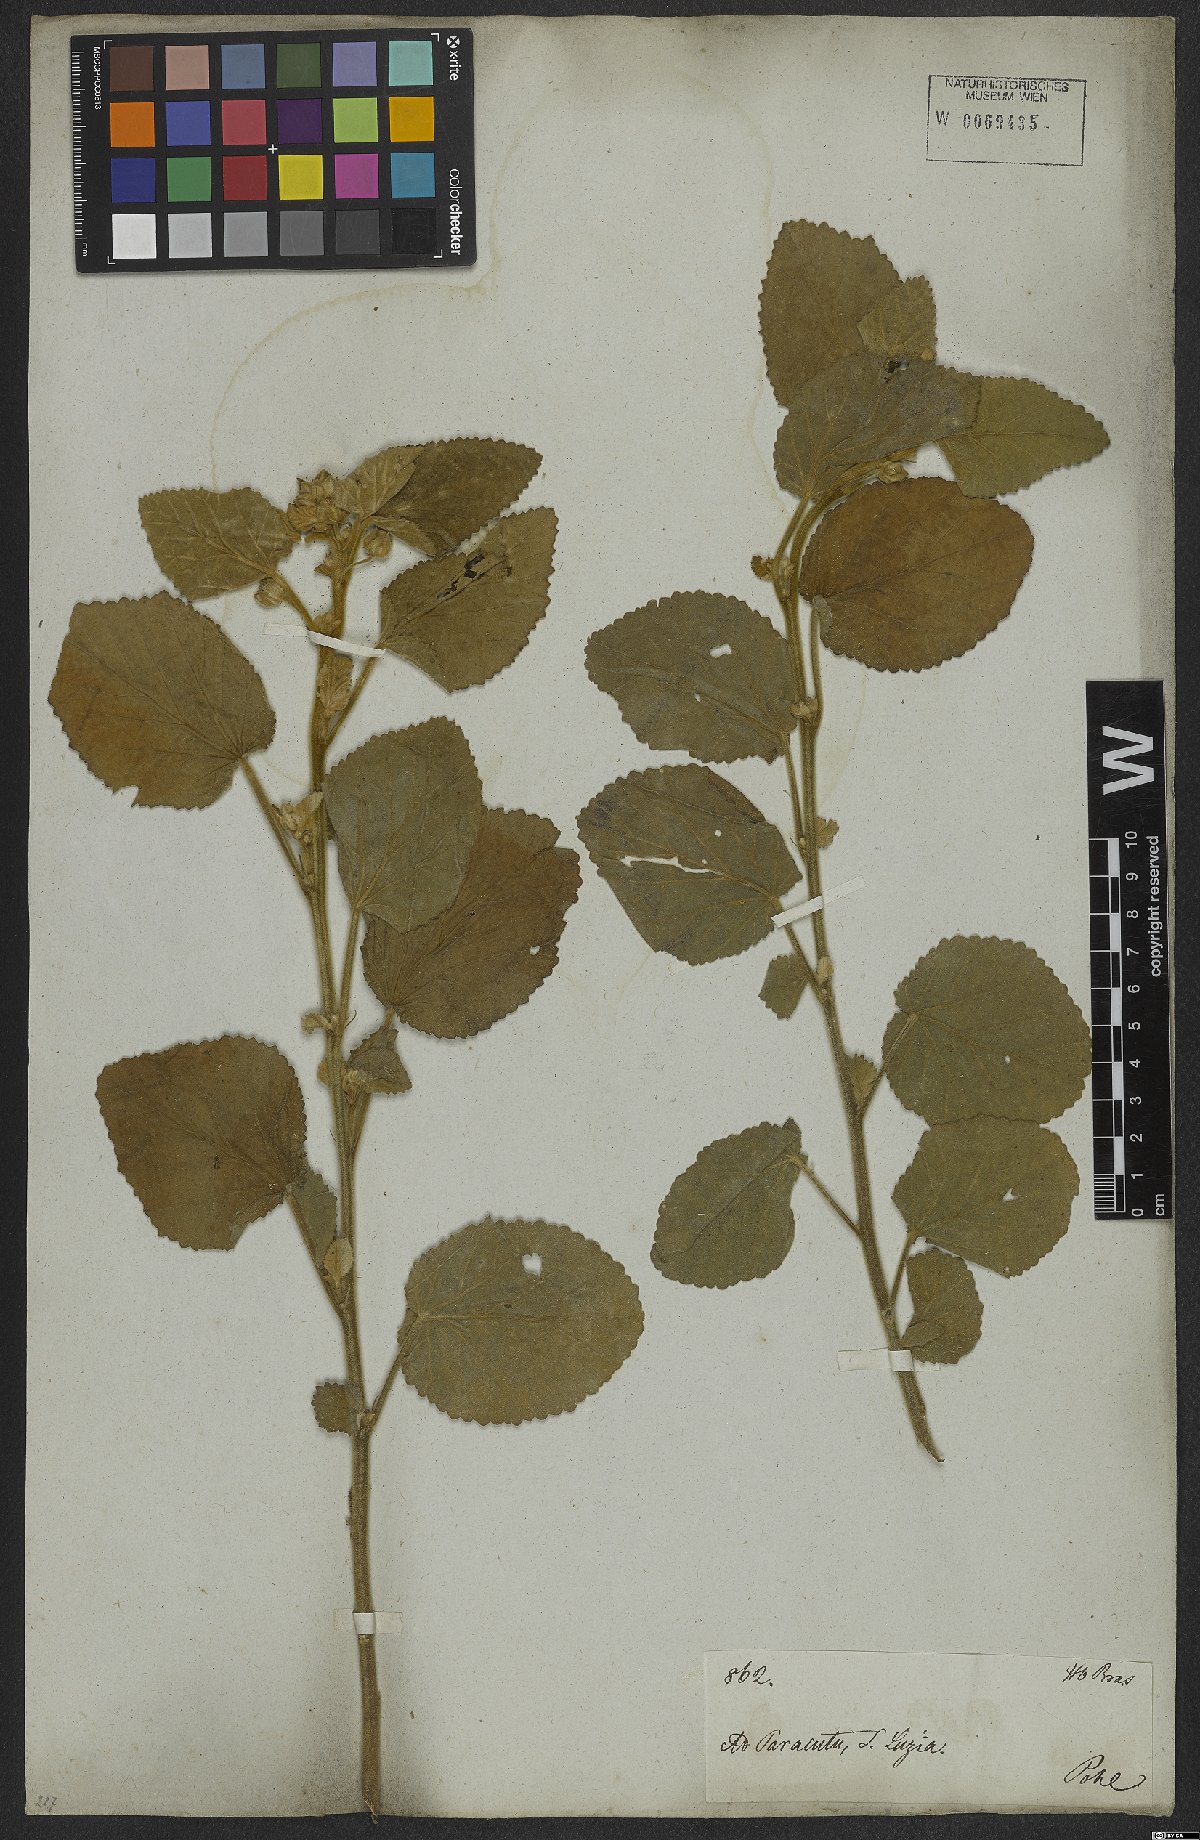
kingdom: Plantae
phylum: Tracheophyta
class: Magnoliopsida
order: Malvales
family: Malvaceae
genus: Sida
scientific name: Sida cordifolia
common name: Ilima
